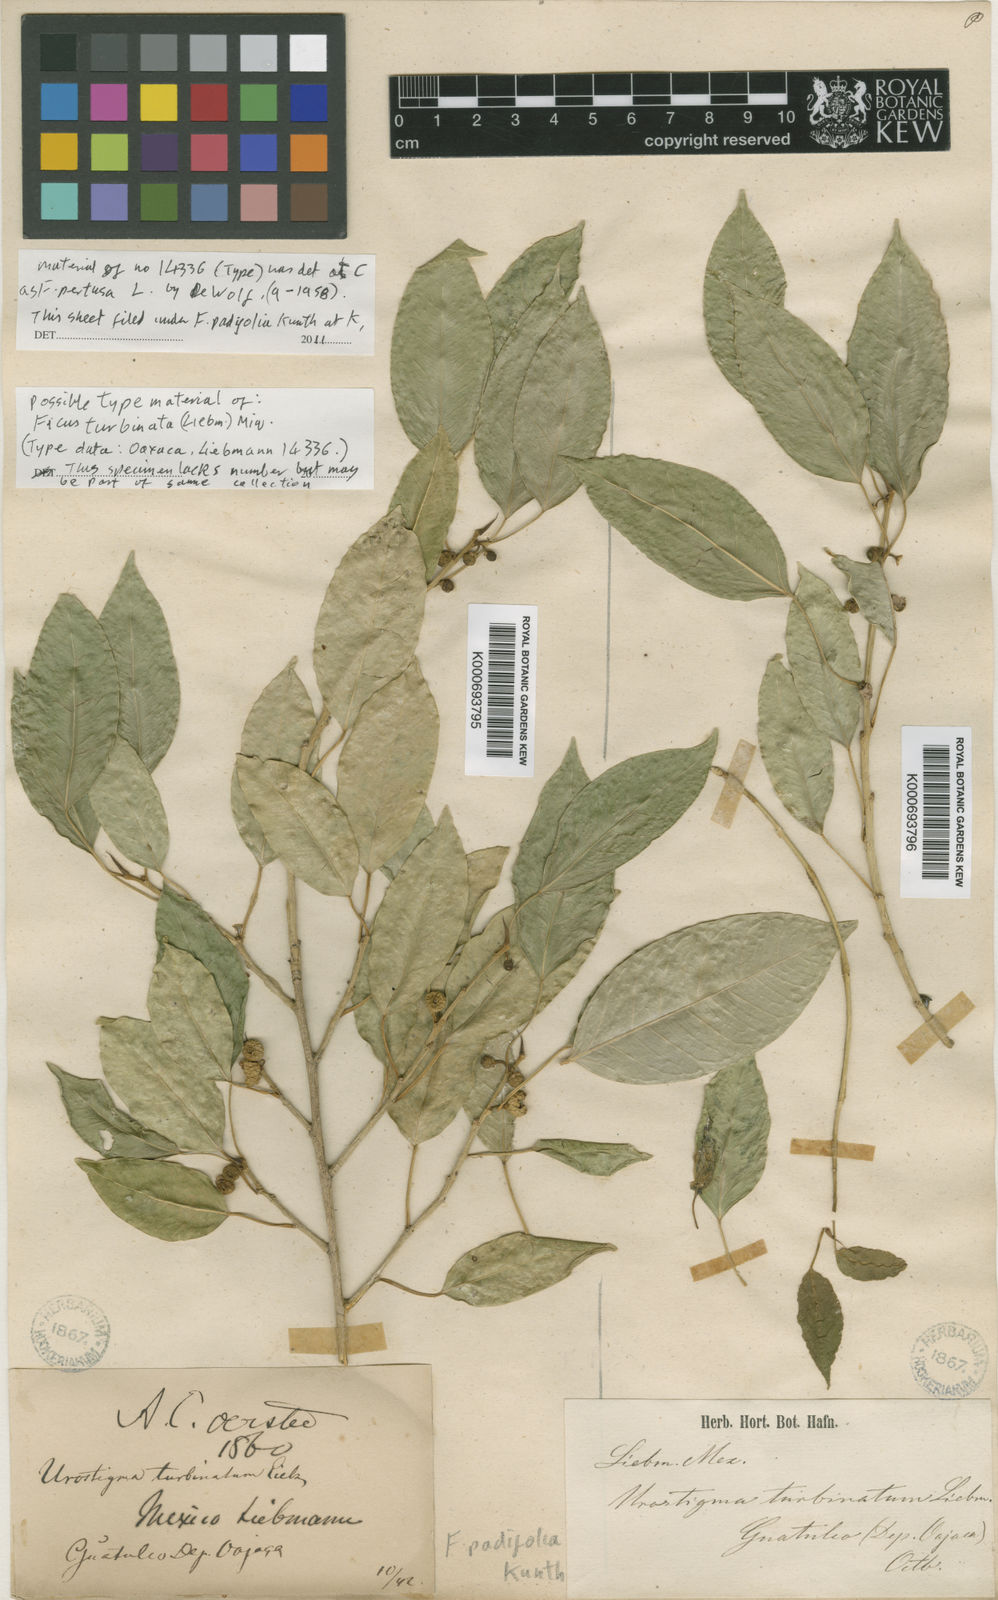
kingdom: Plantae
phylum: Tracheophyta
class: Magnoliopsida
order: Rosales
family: Moraceae
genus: Ficus
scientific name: Ficus padifolia
